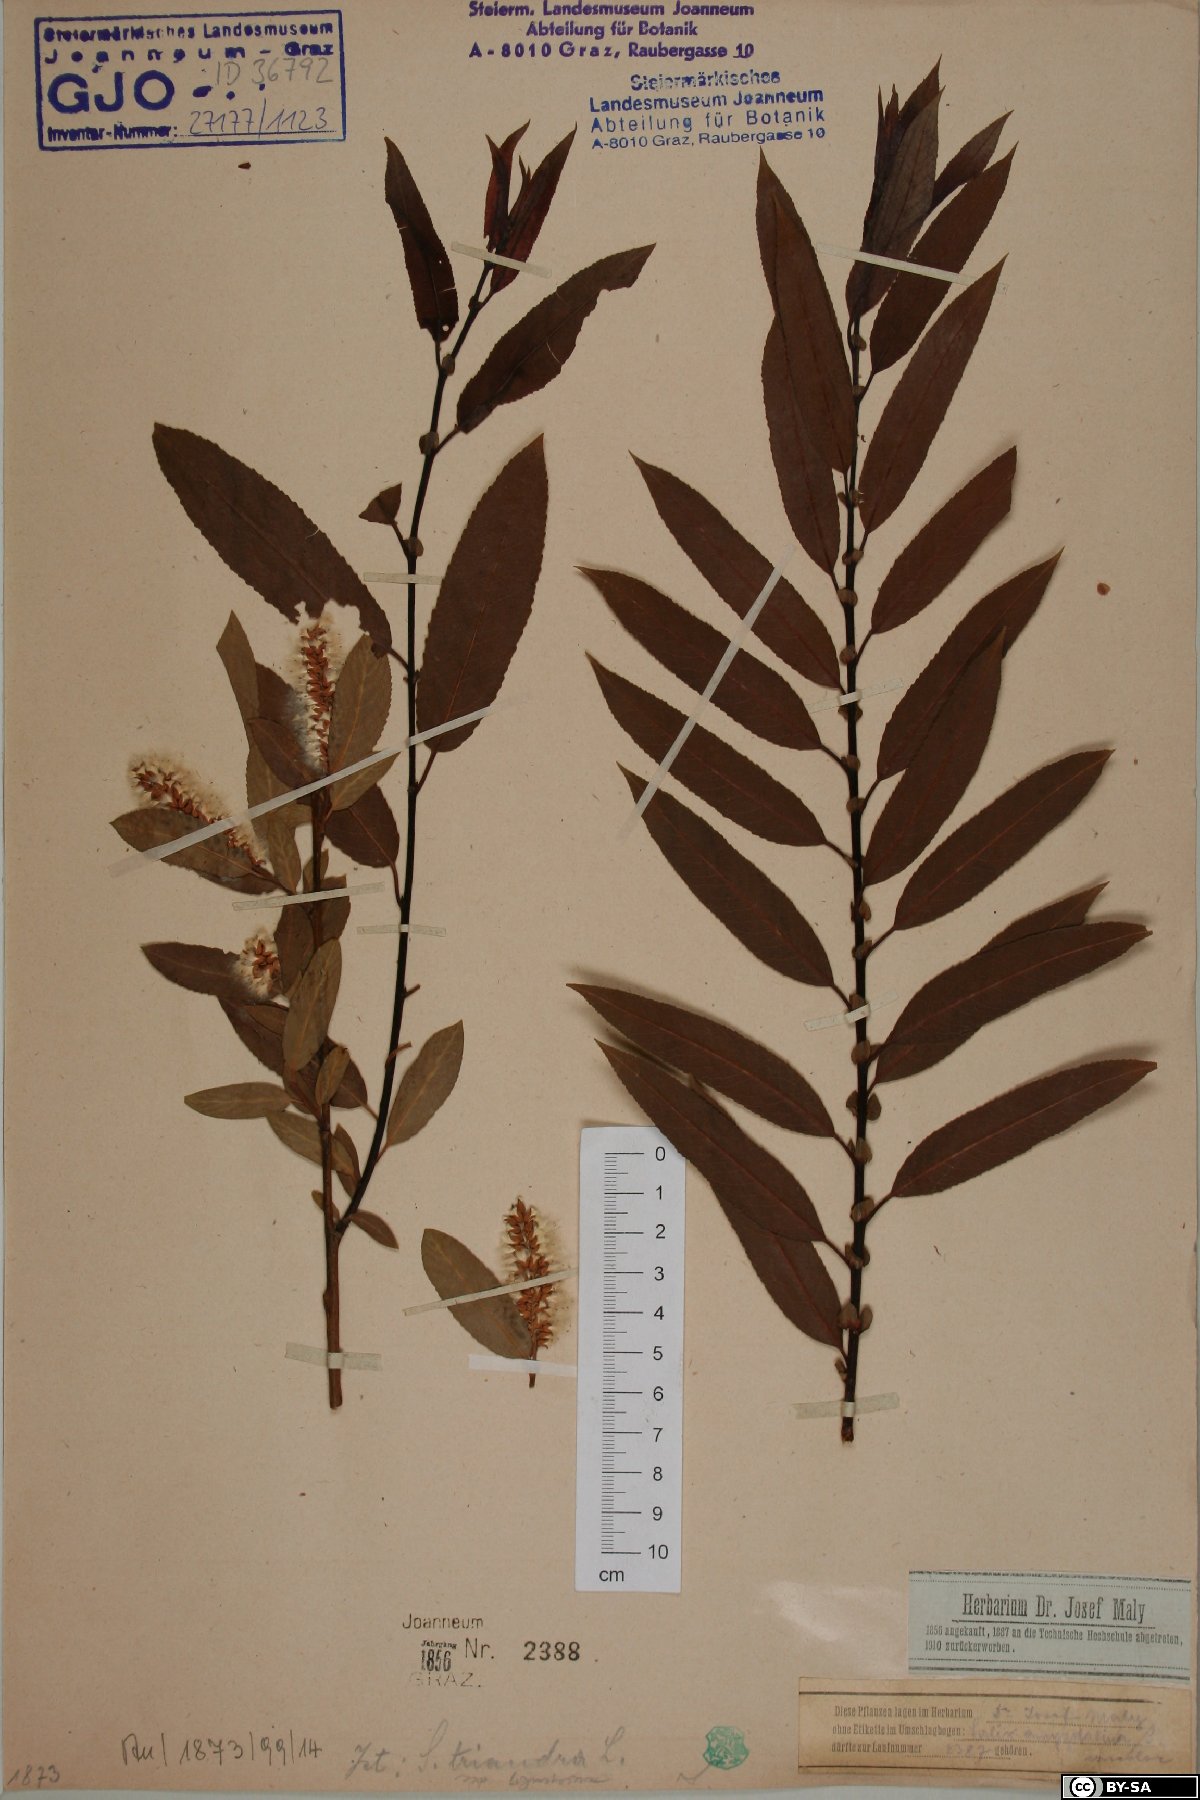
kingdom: Plantae
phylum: Tracheophyta
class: Magnoliopsida
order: Malpighiales
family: Salicaceae
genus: Salix
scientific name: Salix triandra
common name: Almond willow
